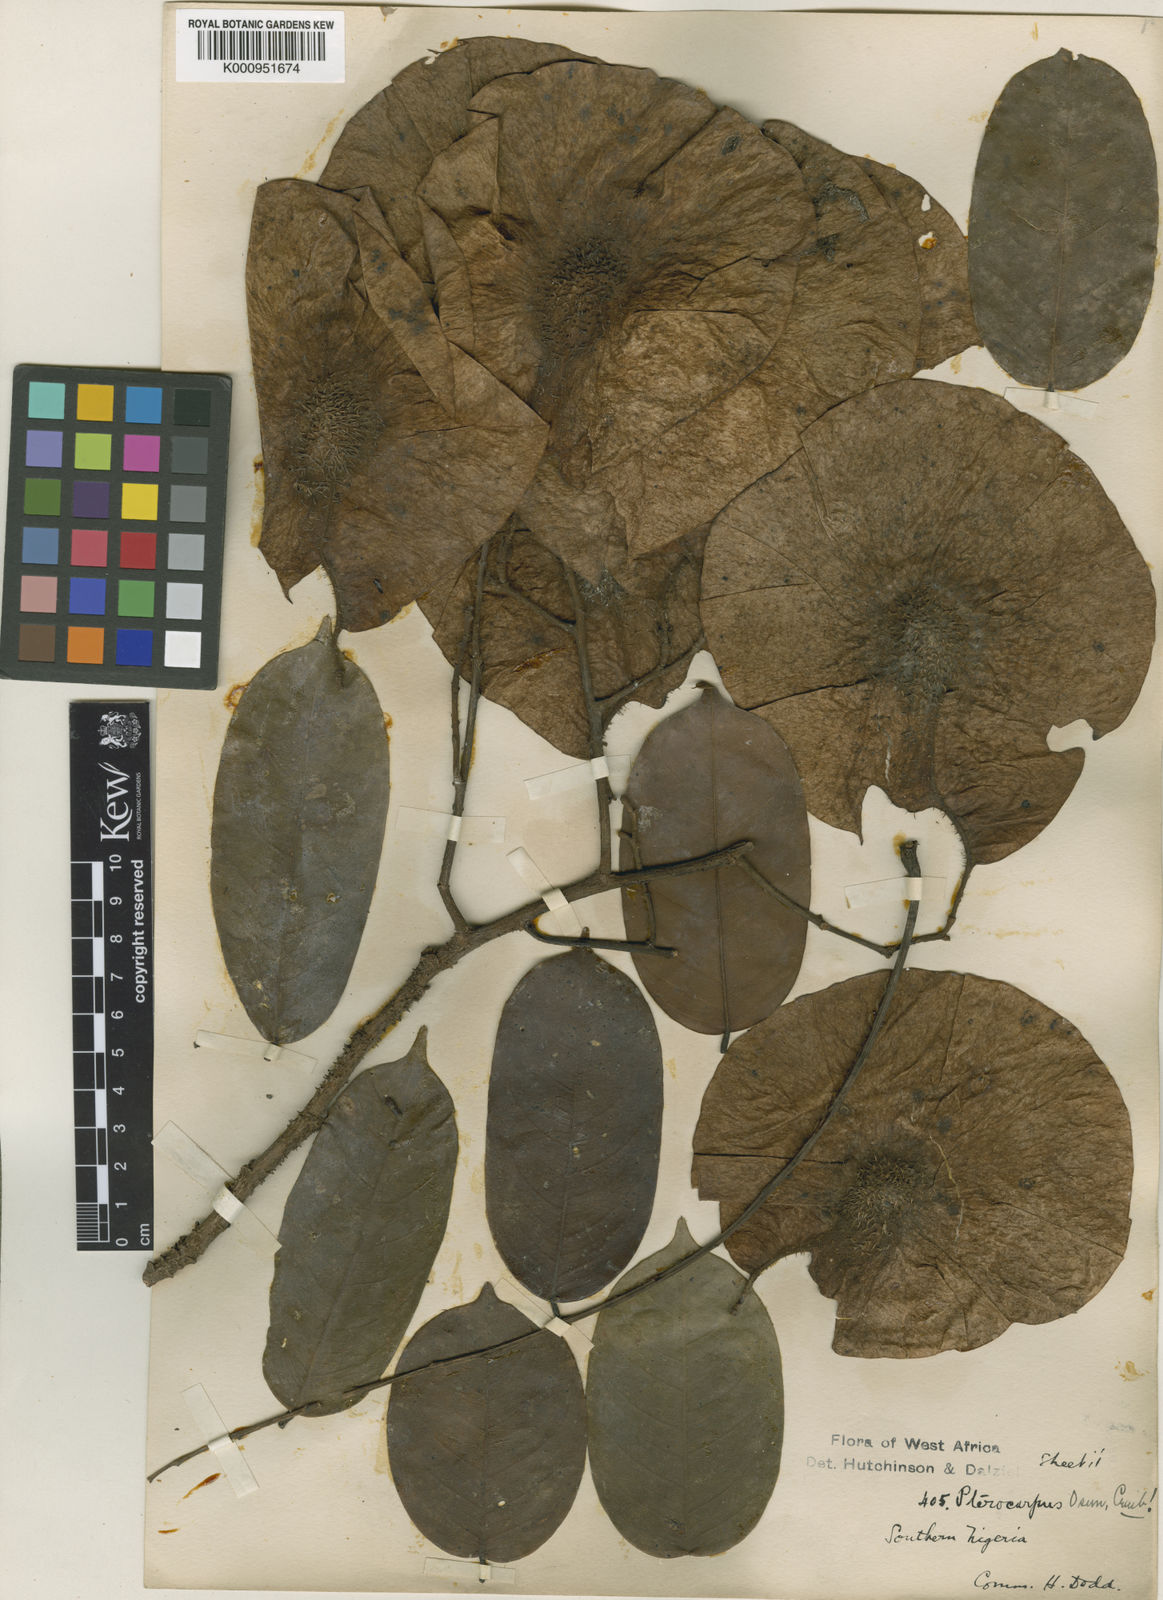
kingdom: Plantae
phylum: Tracheophyta
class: Magnoliopsida
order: Fabales
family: Fabaceae
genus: Pterocarpus
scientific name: Pterocarpus osun
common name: Camwood
